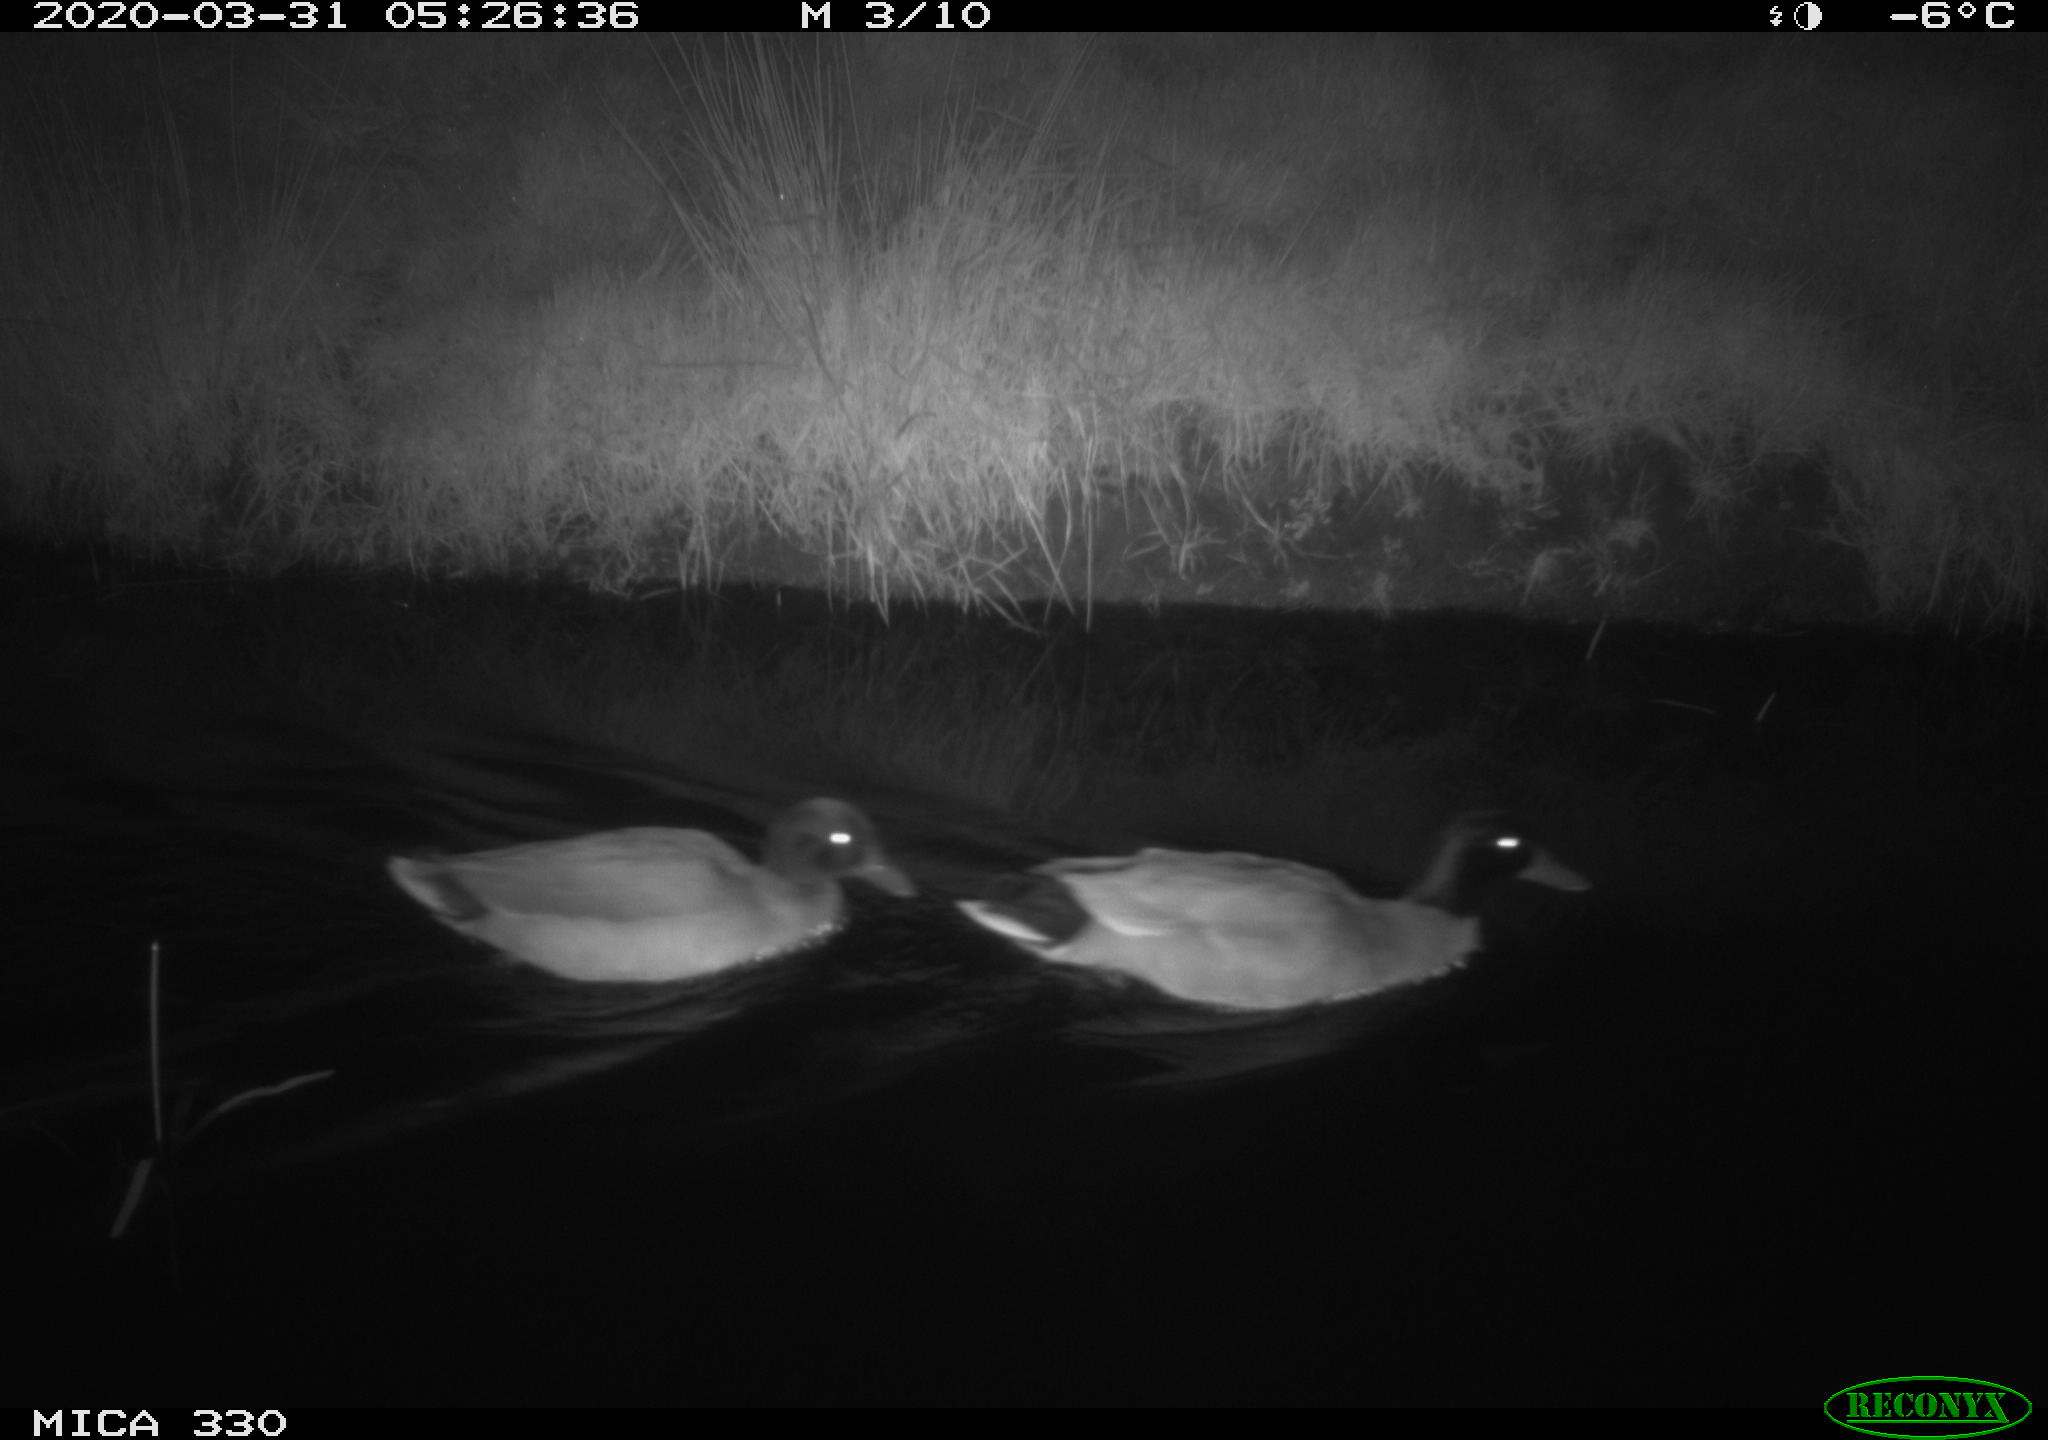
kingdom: Animalia
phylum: Chordata
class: Aves
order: Anseriformes
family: Anatidae
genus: Anas
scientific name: Anas platyrhynchos
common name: Mallard
